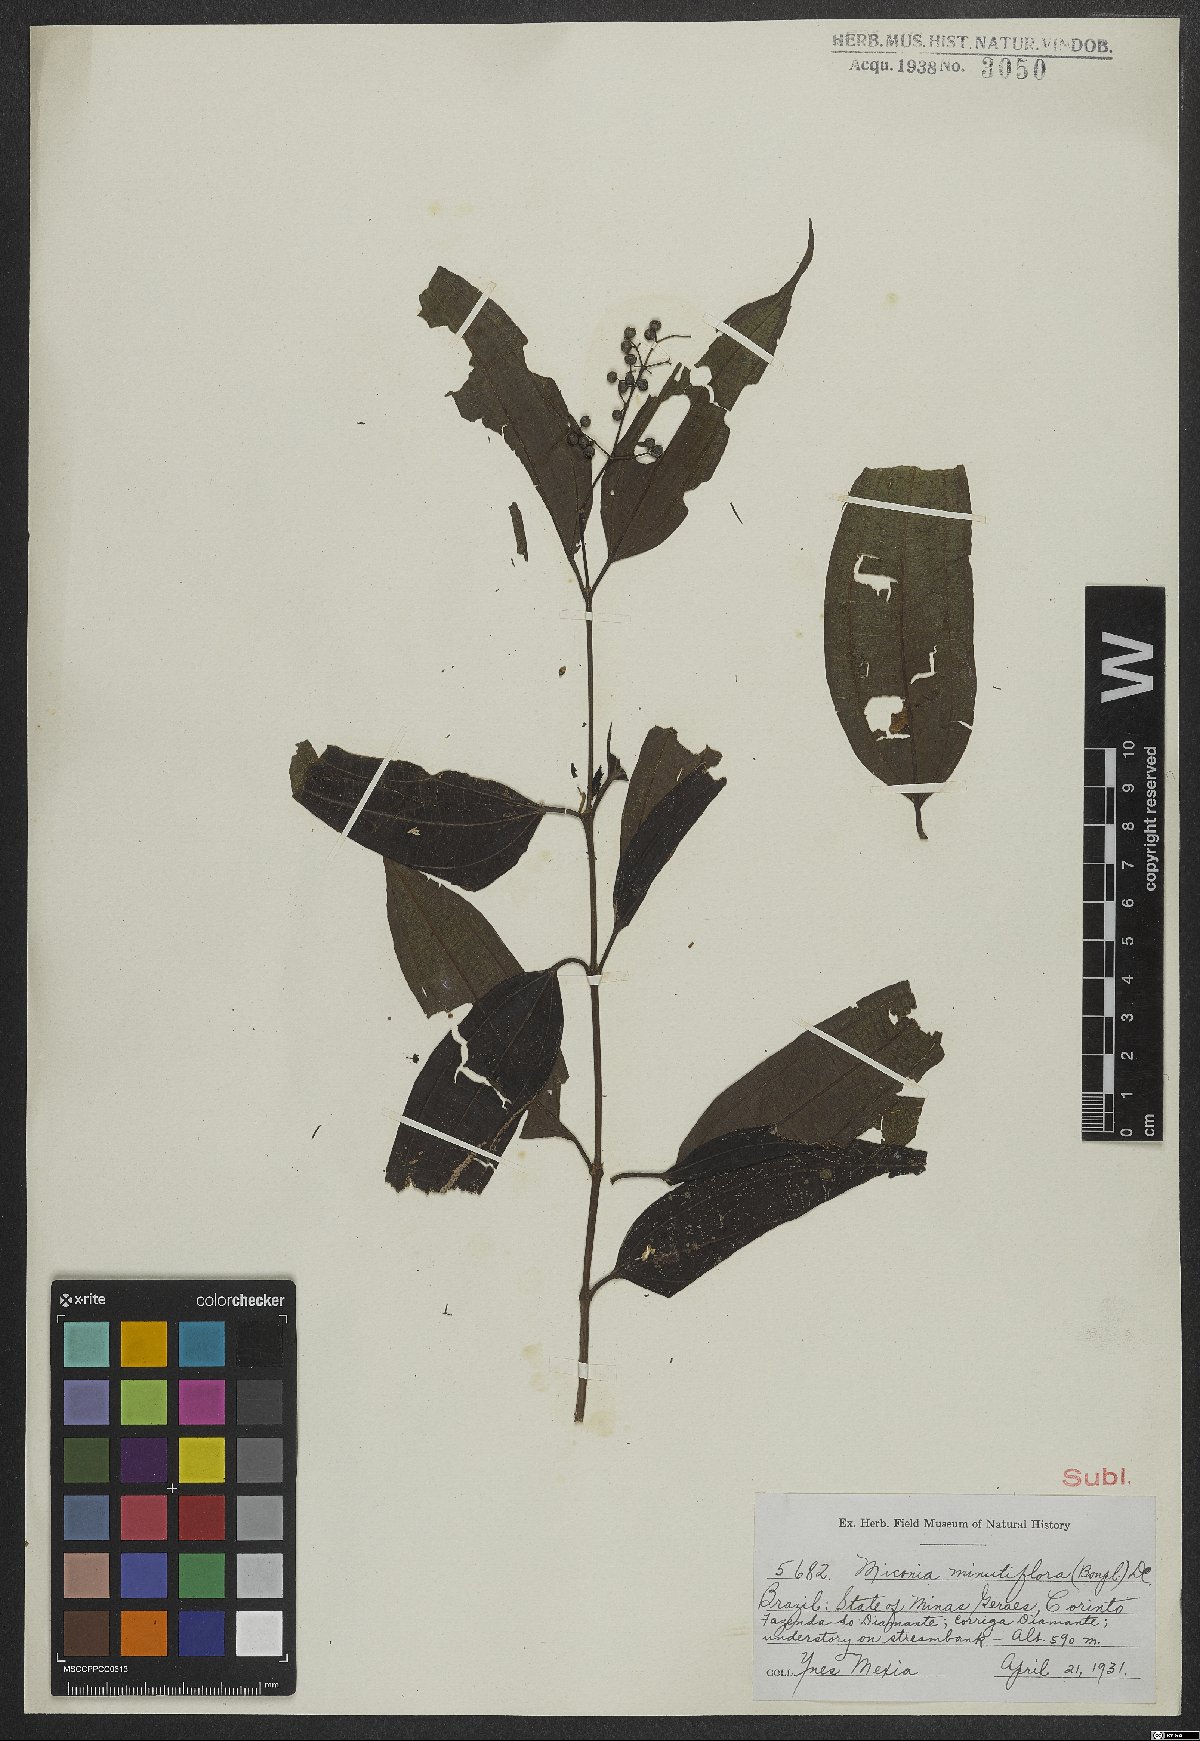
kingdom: Plantae
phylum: Tracheophyta
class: Magnoliopsida
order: Myrtales
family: Melastomataceae
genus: Miconia
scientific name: Miconia minutiflora
